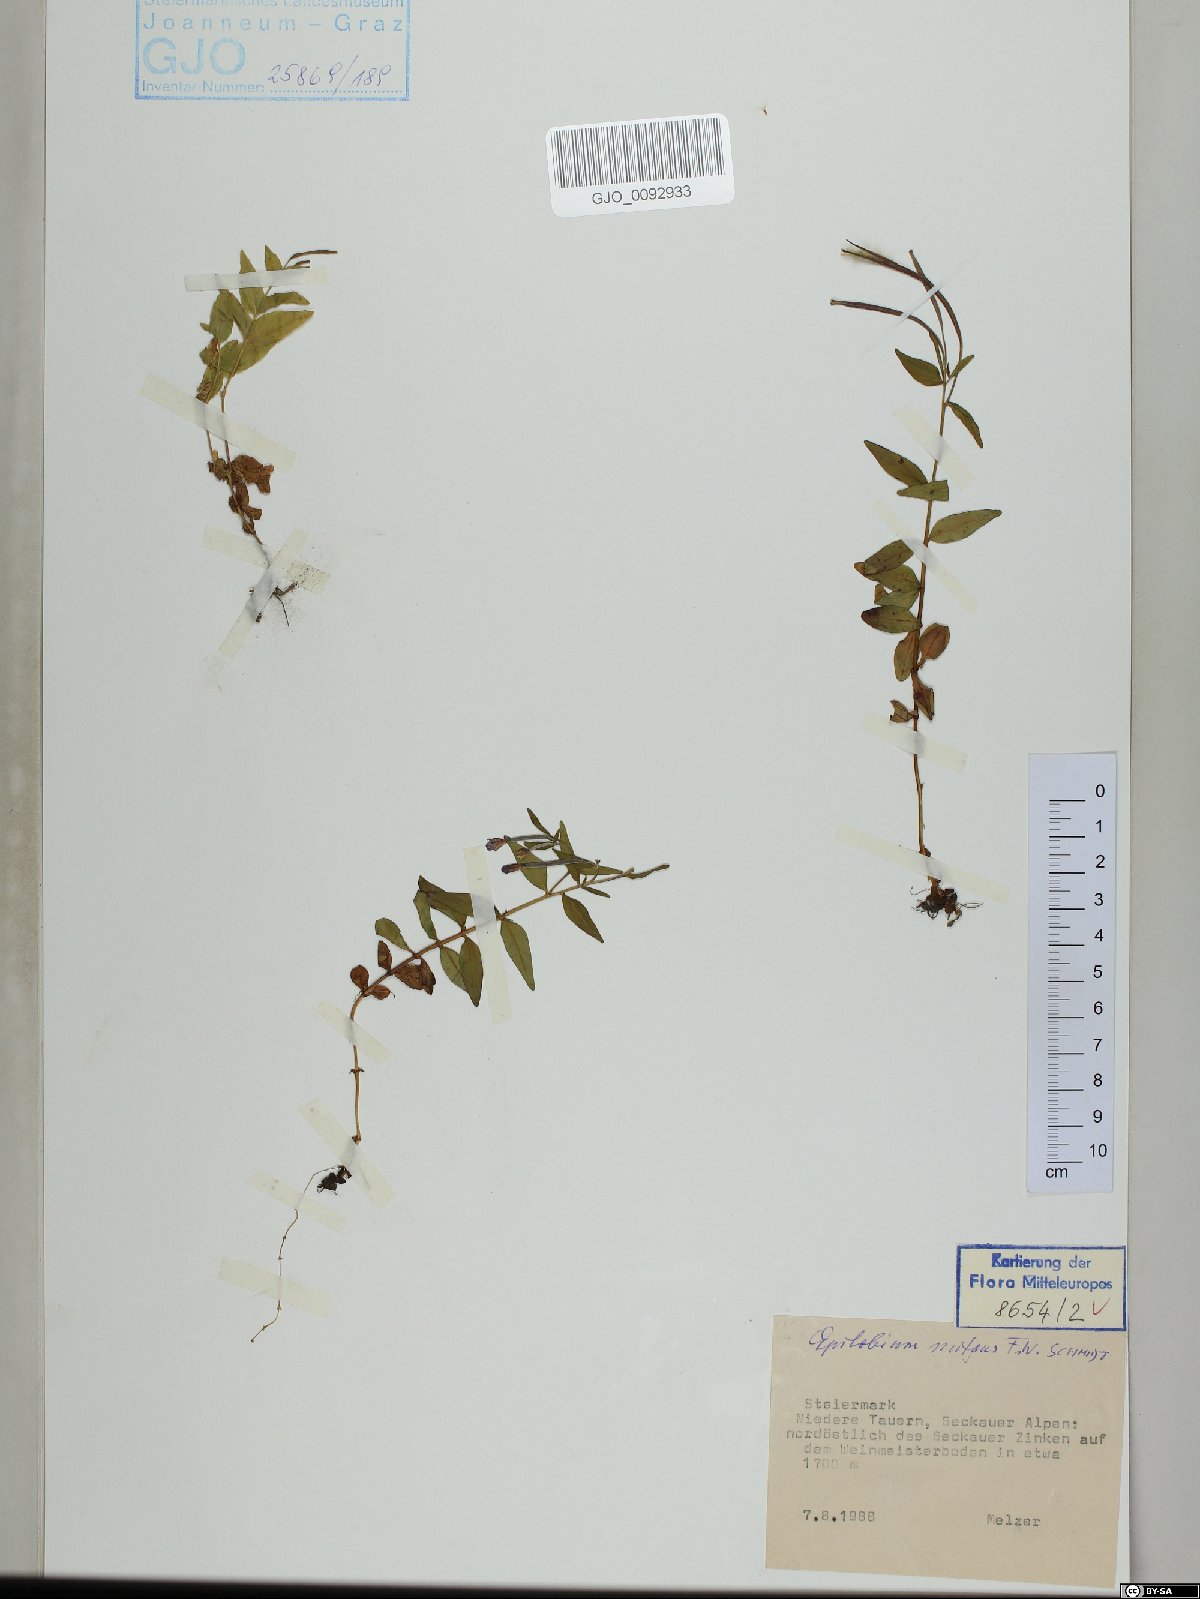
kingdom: Plantae
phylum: Tracheophyta
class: Magnoliopsida
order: Myrtales
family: Onagraceae
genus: Epilobium
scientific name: Epilobium nutans
